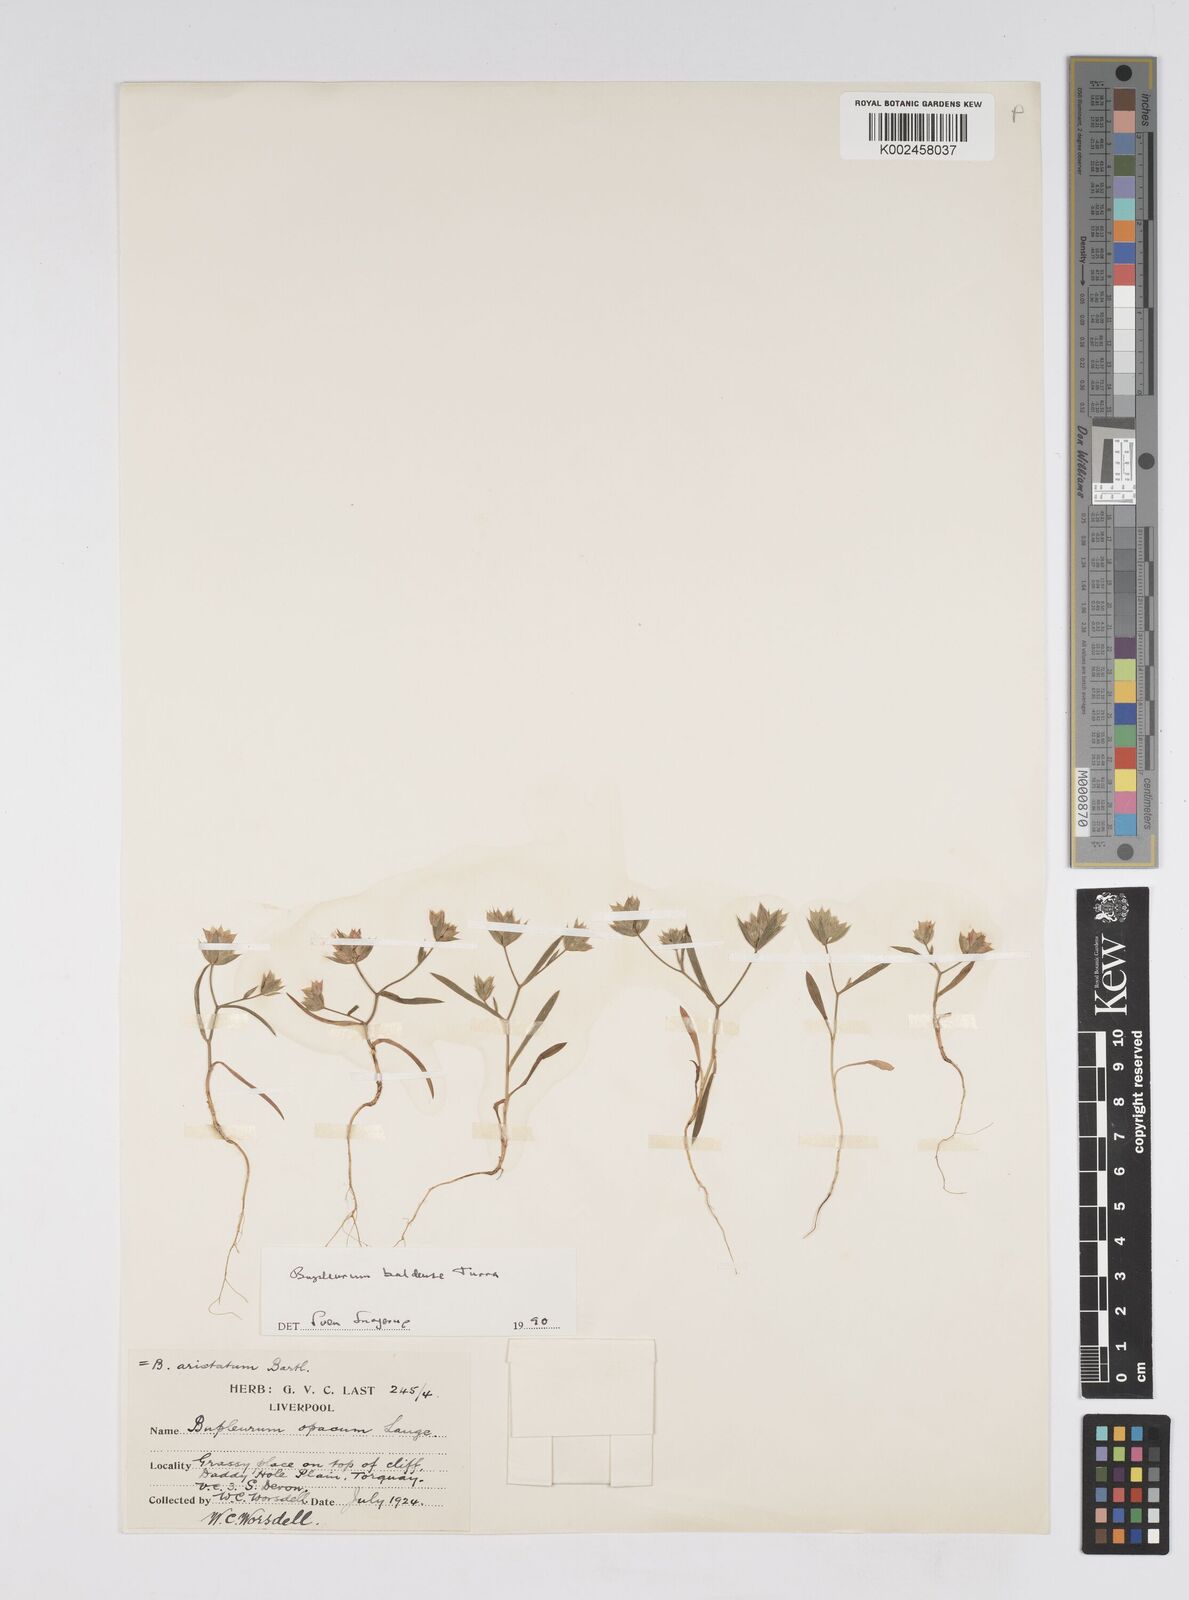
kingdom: Plantae
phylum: Tracheophyta
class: Magnoliopsida
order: Apiales
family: Apiaceae
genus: Bupleurum
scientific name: Bupleurum baldense
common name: Small hare's-ear
